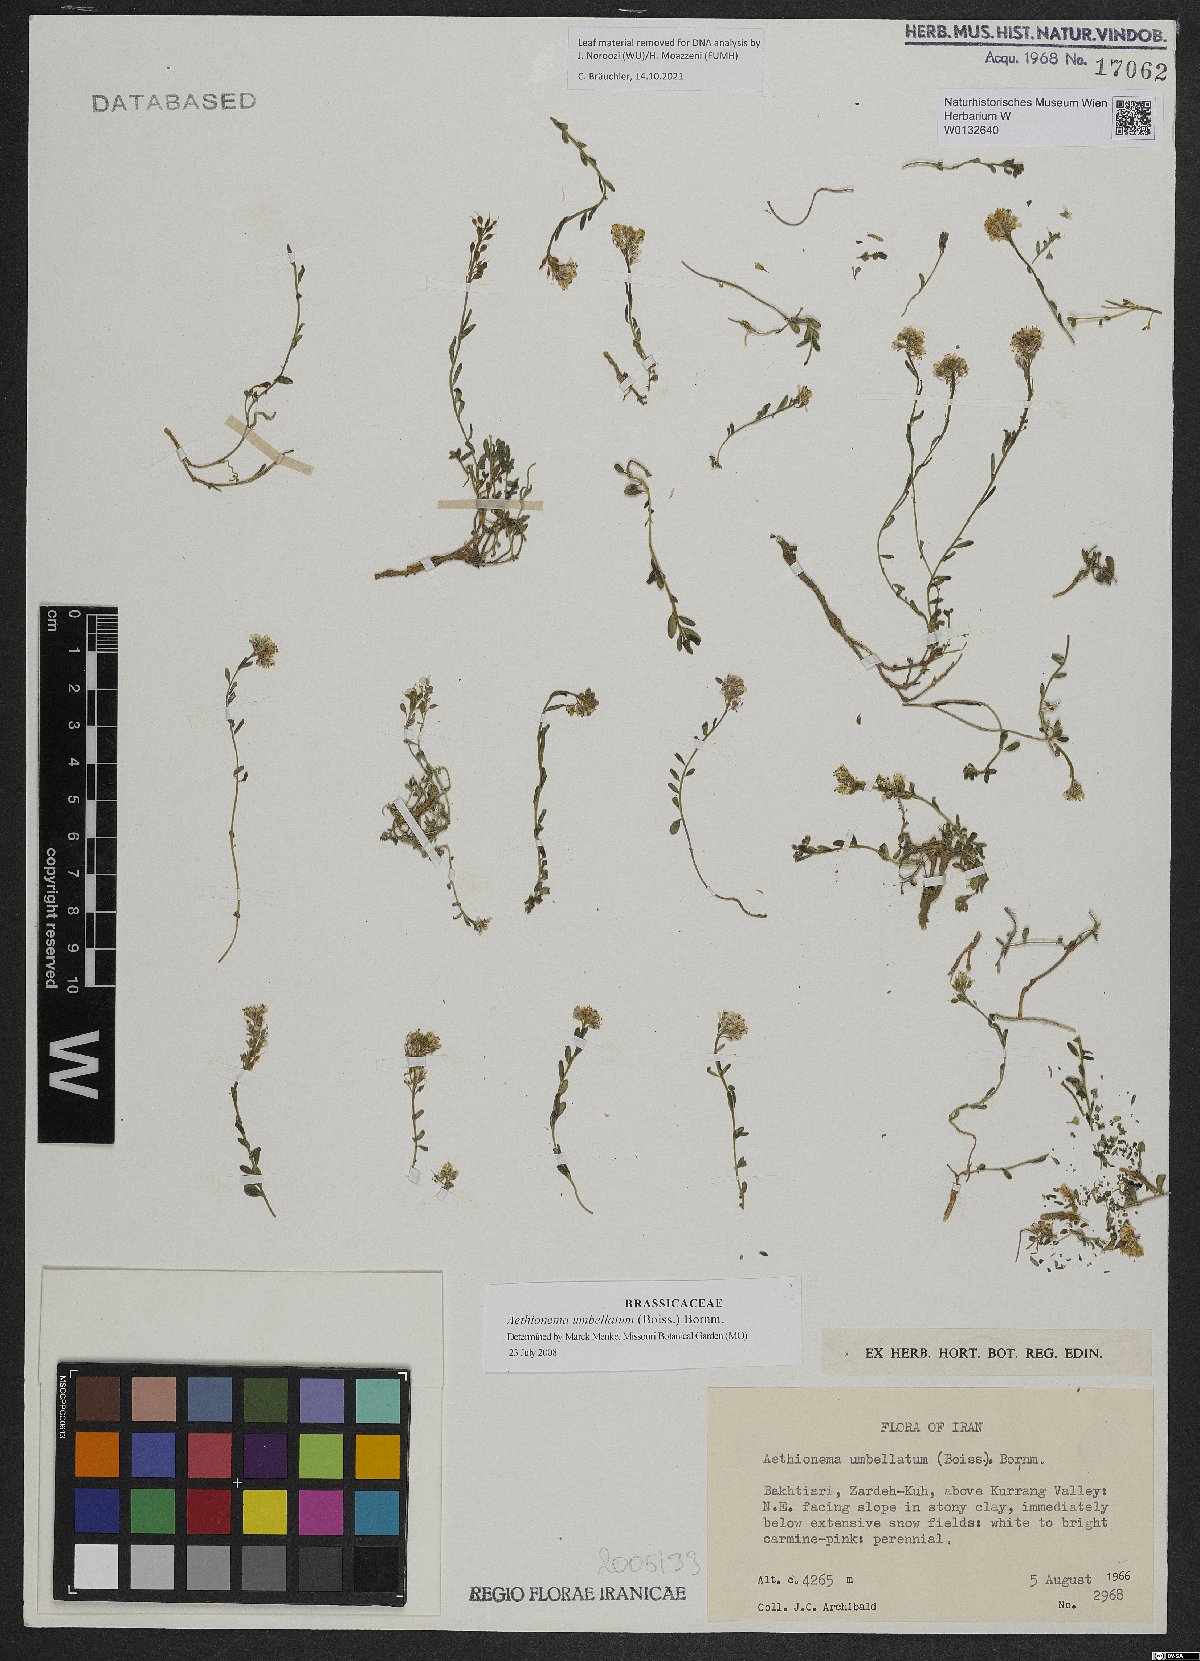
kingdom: Plantae
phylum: Tracheophyta
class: Magnoliopsida
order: Brassicales
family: Brassicaceae
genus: Aethionema
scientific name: Aethionema umbellatum
